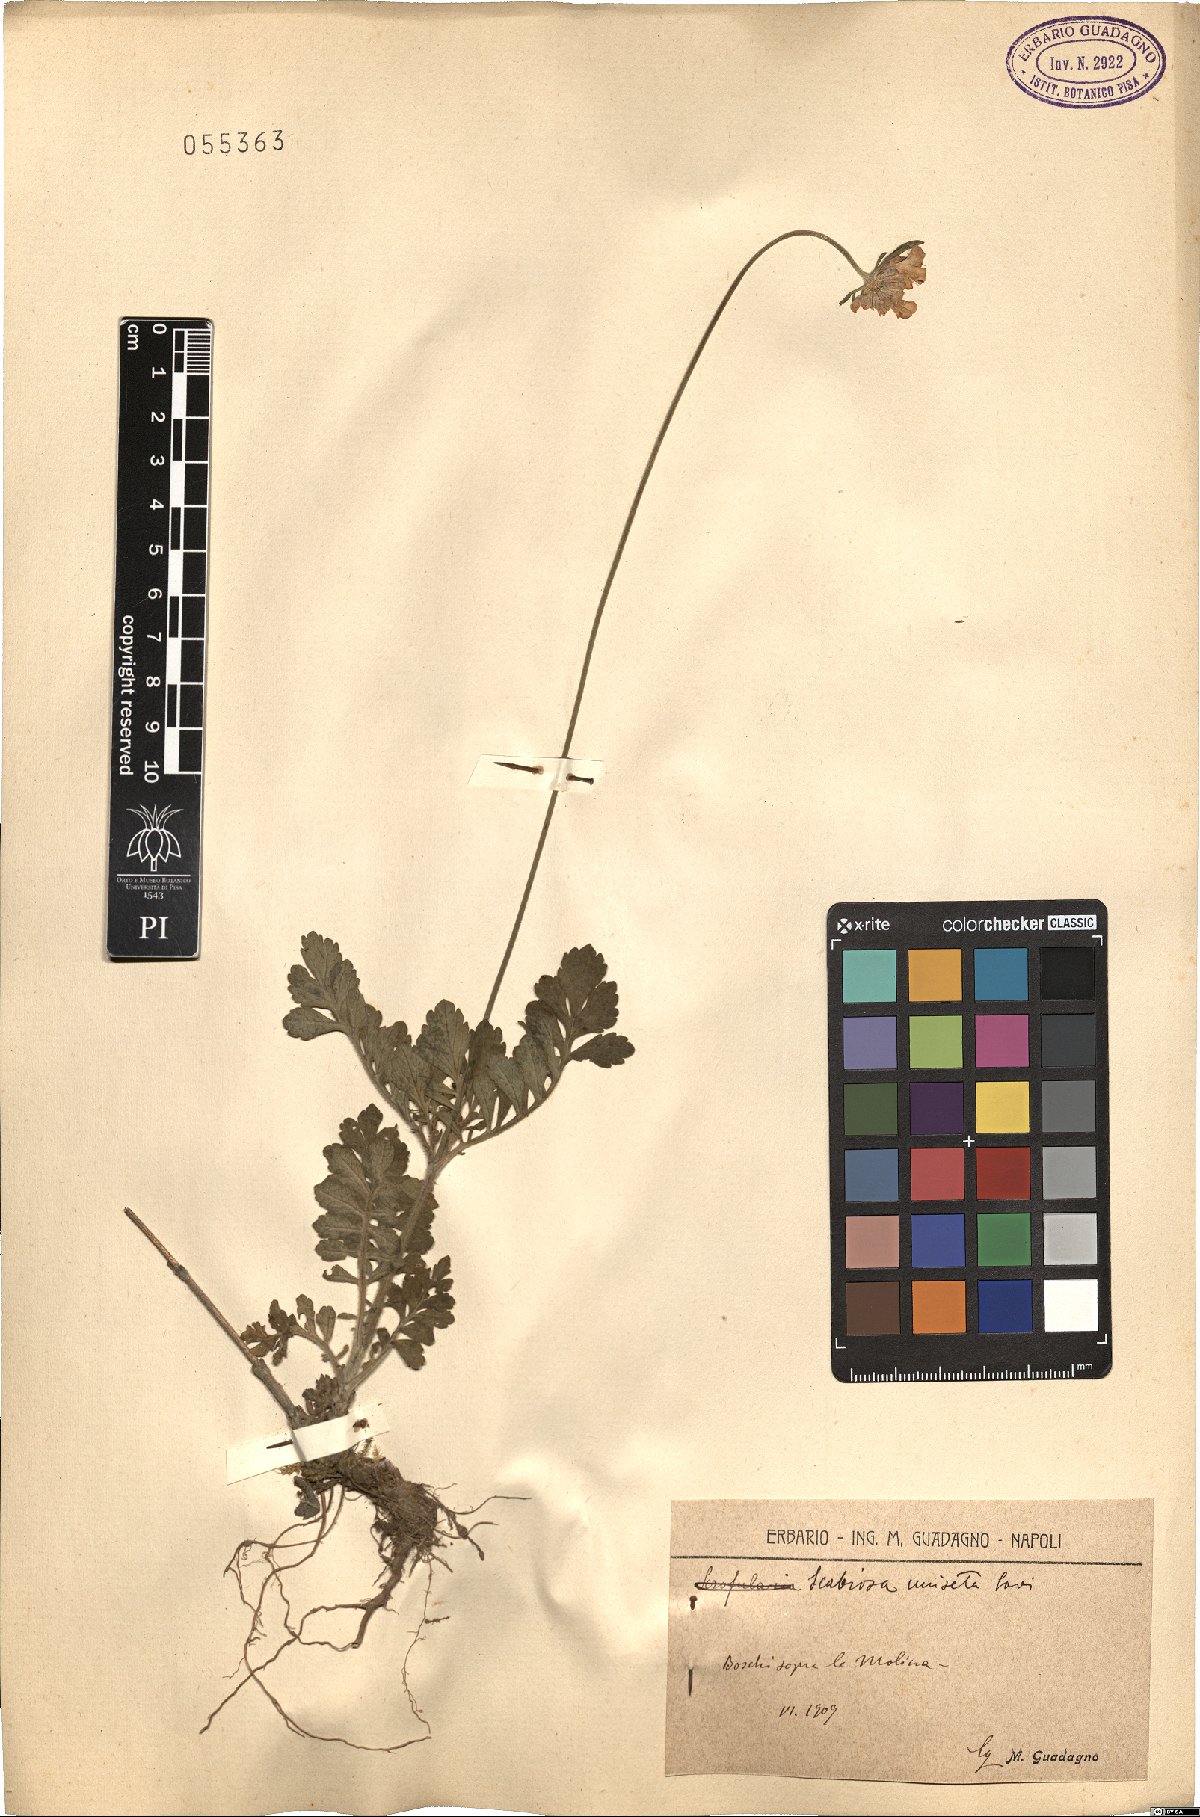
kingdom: Plantae
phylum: Tracheophyta
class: Magnoliopsida
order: Dipsacales
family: Caprifoliaceae
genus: Scabiosa
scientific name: Scabiosa columbaria
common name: Small scabious
